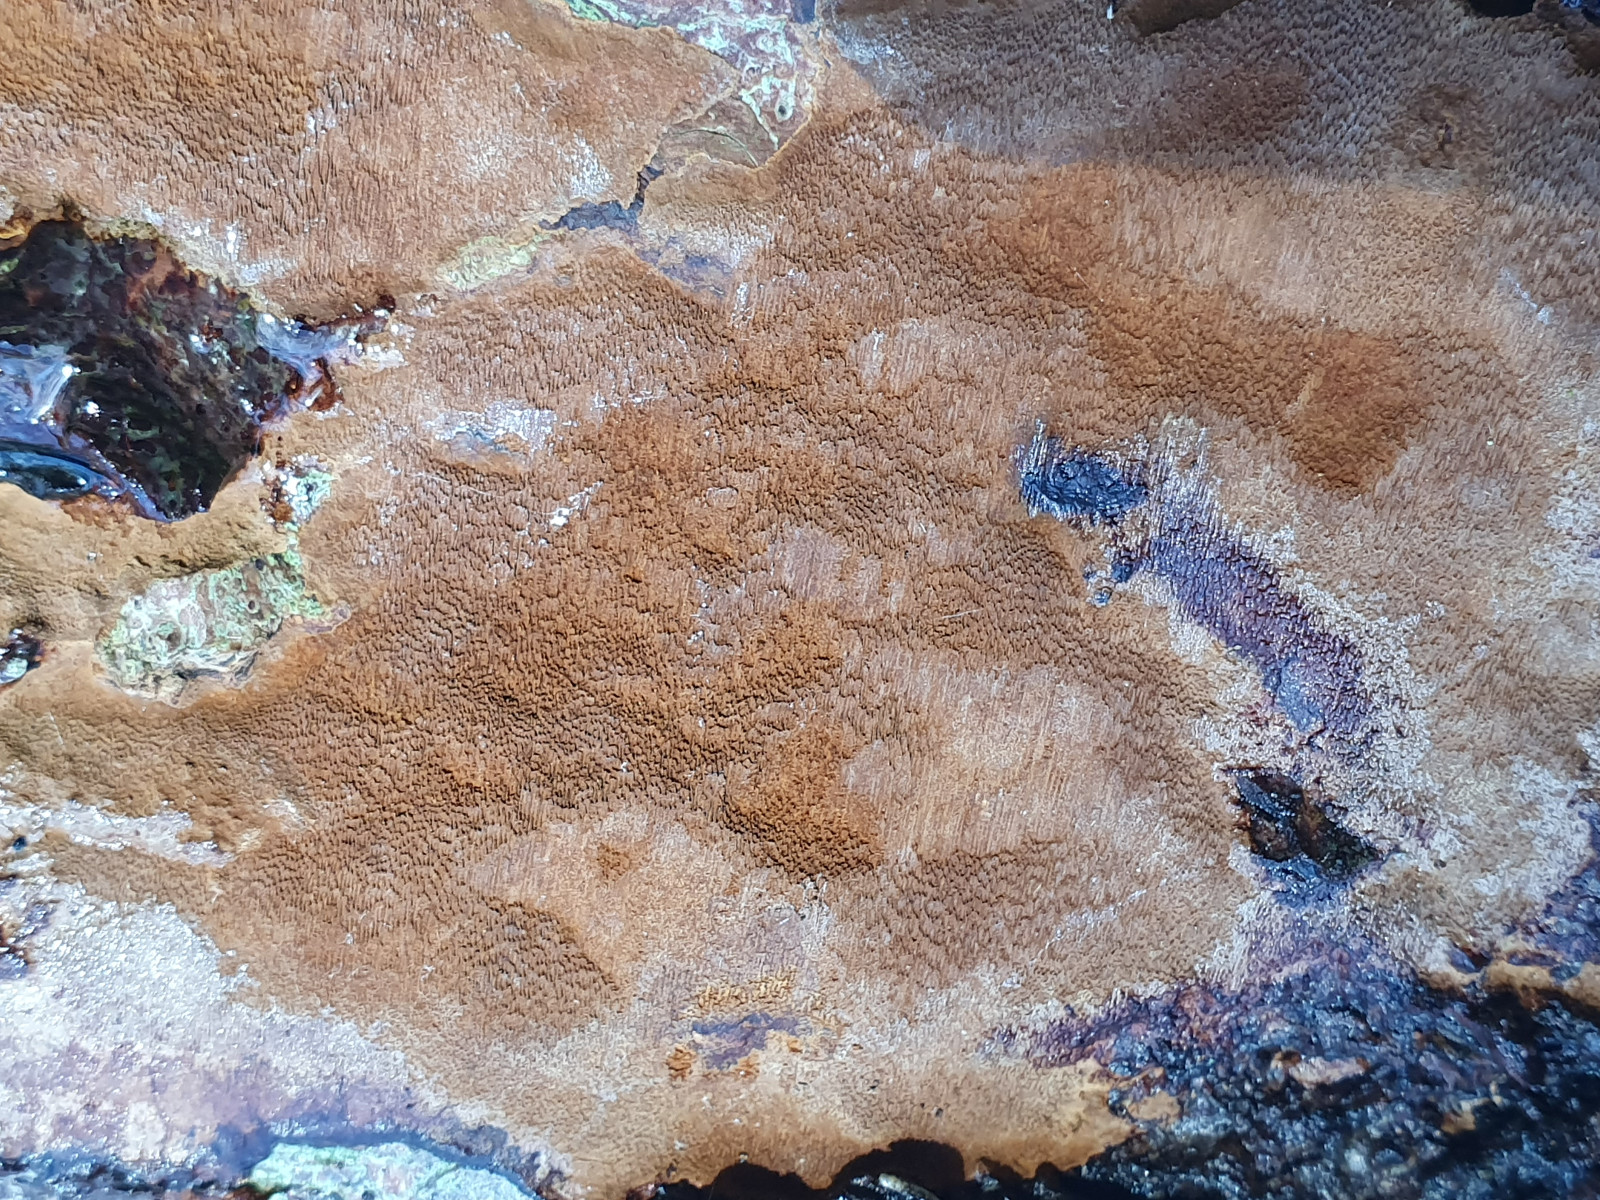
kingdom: Fungi
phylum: Basidiomycota
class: Agaricomycetes
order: Hymenochaetales
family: Hymenochaetaceae
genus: Fuscoporia
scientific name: Fuscoporia ferrea
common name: skorpe-ildporesvamp
